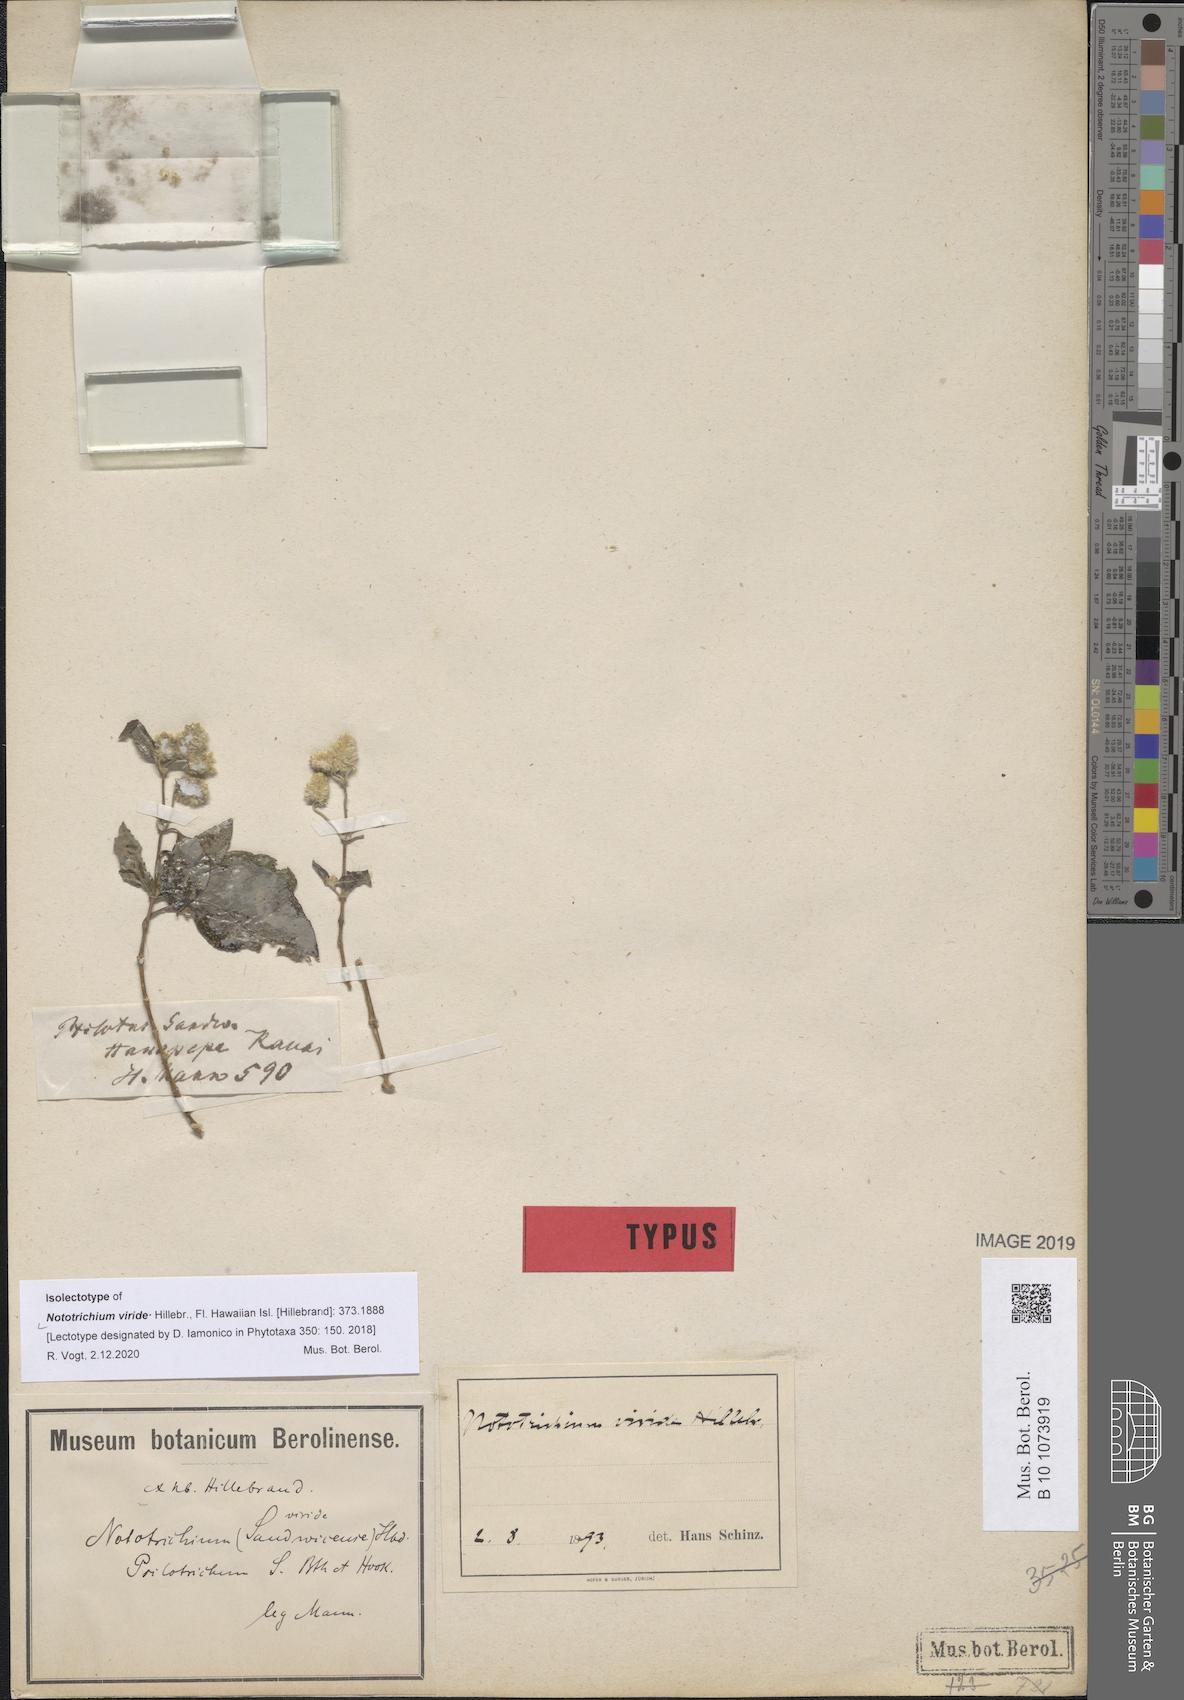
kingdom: Plantae
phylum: Tracheophyta
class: Magnoliopsida
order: Caryophyllales
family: Amaranthaceae
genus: Nototrichium
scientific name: Nototrichium sandwicense
